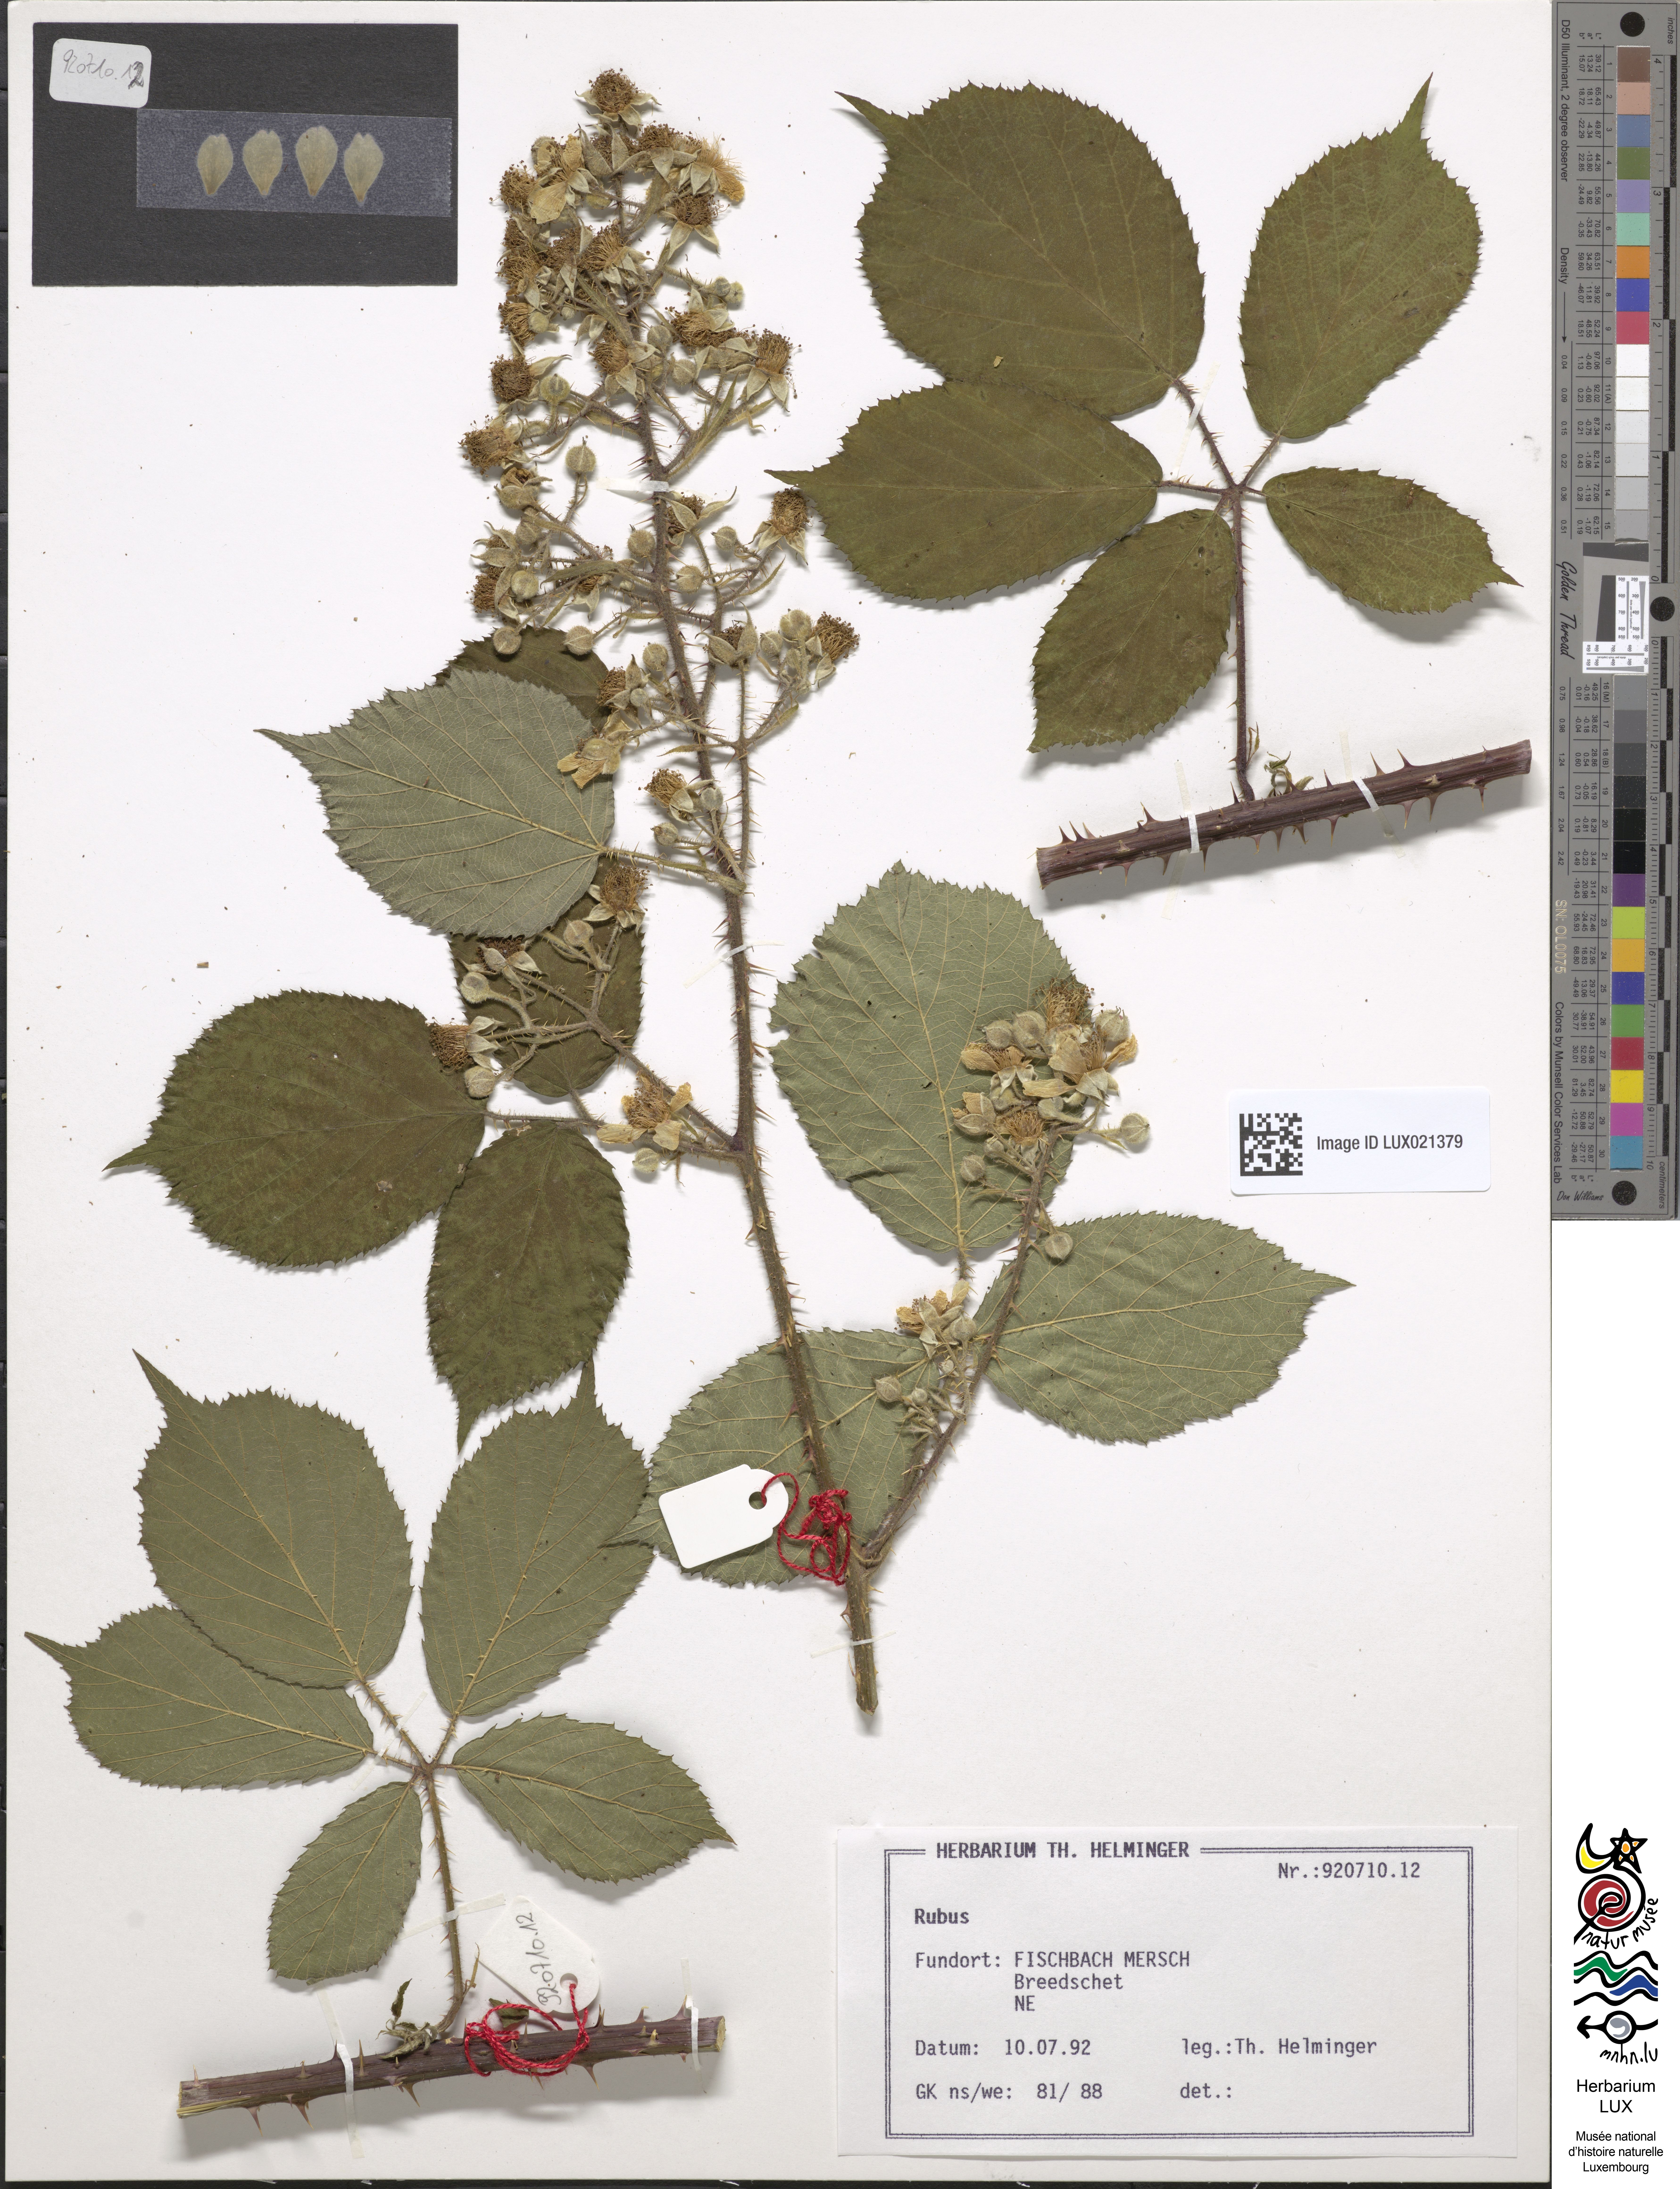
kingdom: Plantae
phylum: Tracheophyta
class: Magnoliopsida
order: Rosales
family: Rosaceae
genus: Rubus
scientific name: Rubus
